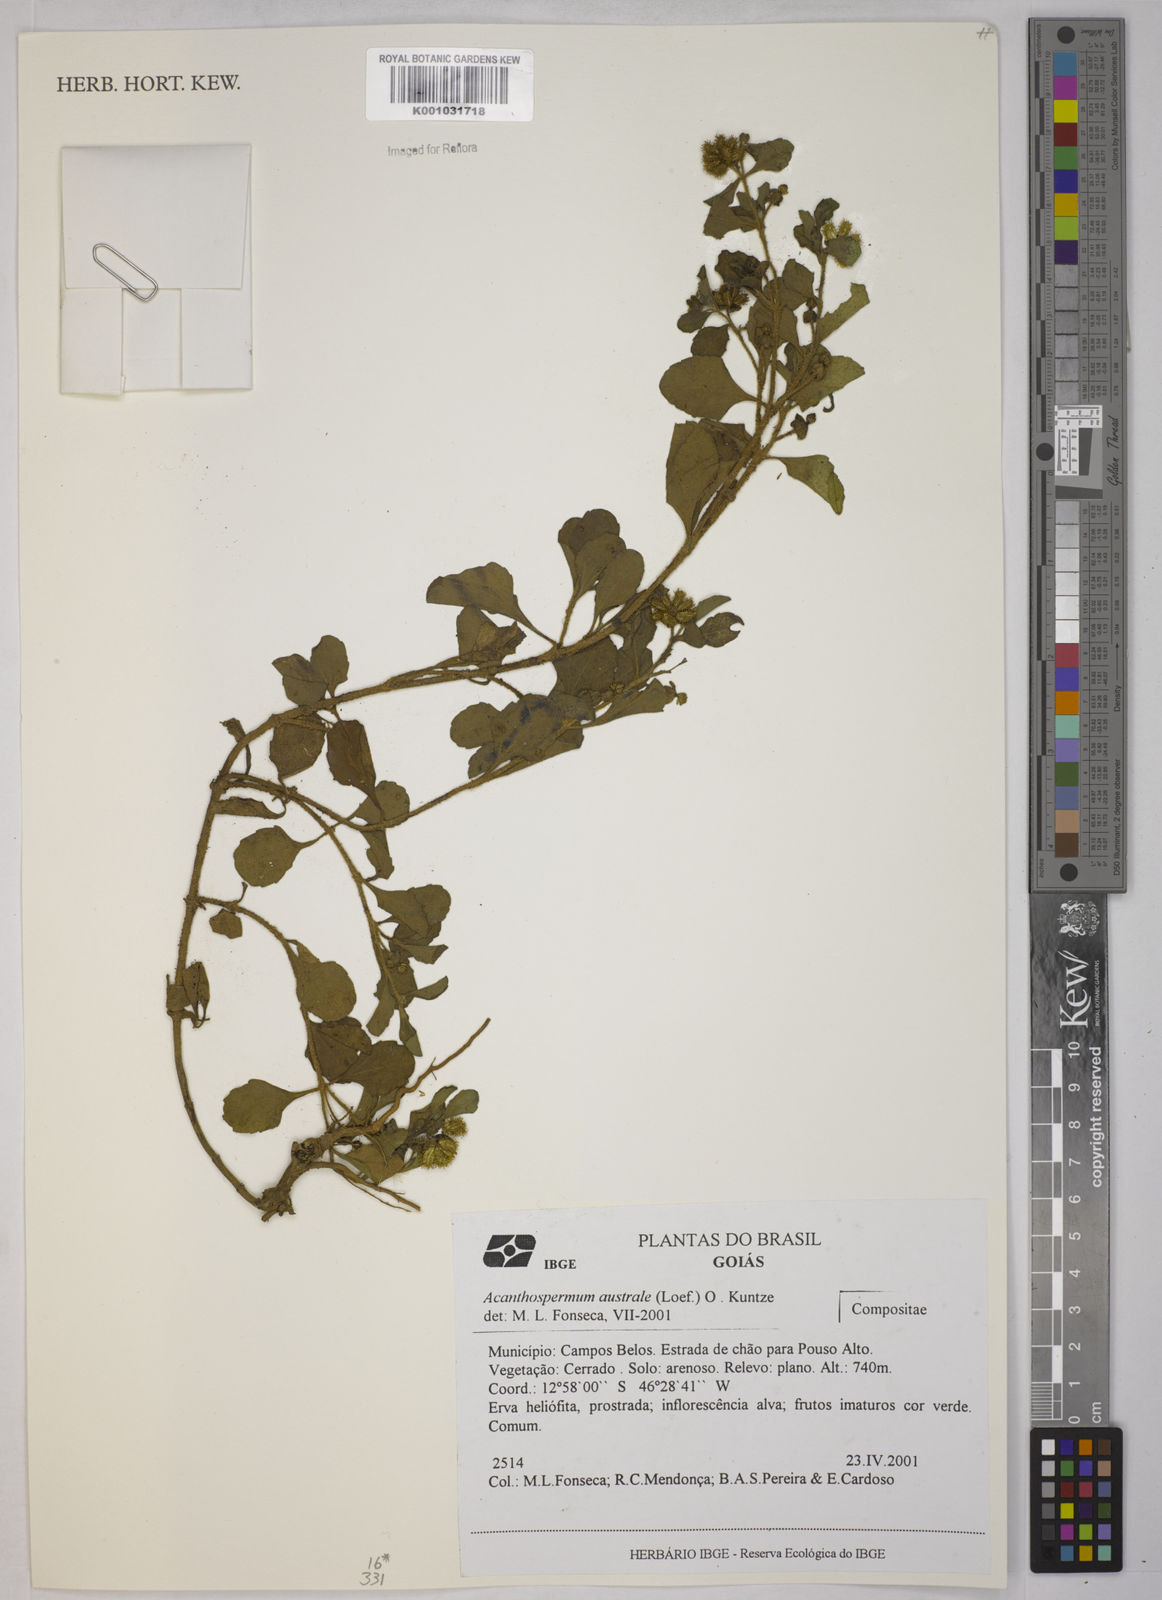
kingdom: Plantae
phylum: Tracheophyta
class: Magnoliopsida
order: Asterales
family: Asteraceae
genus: Acanthospermum
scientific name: Acanthospermum australe
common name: Paraguayan starbur
